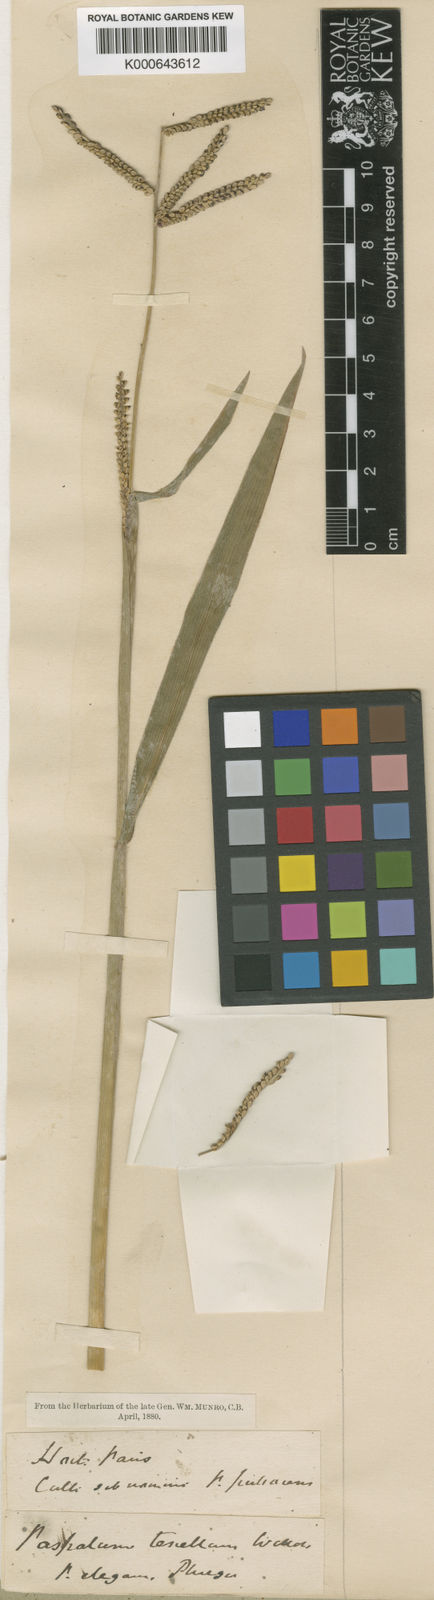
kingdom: Plantae
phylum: Tracheophyta
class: Liliopsida
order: Poales
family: Poaceae
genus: Paspalum
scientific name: Paspalum tenellum
